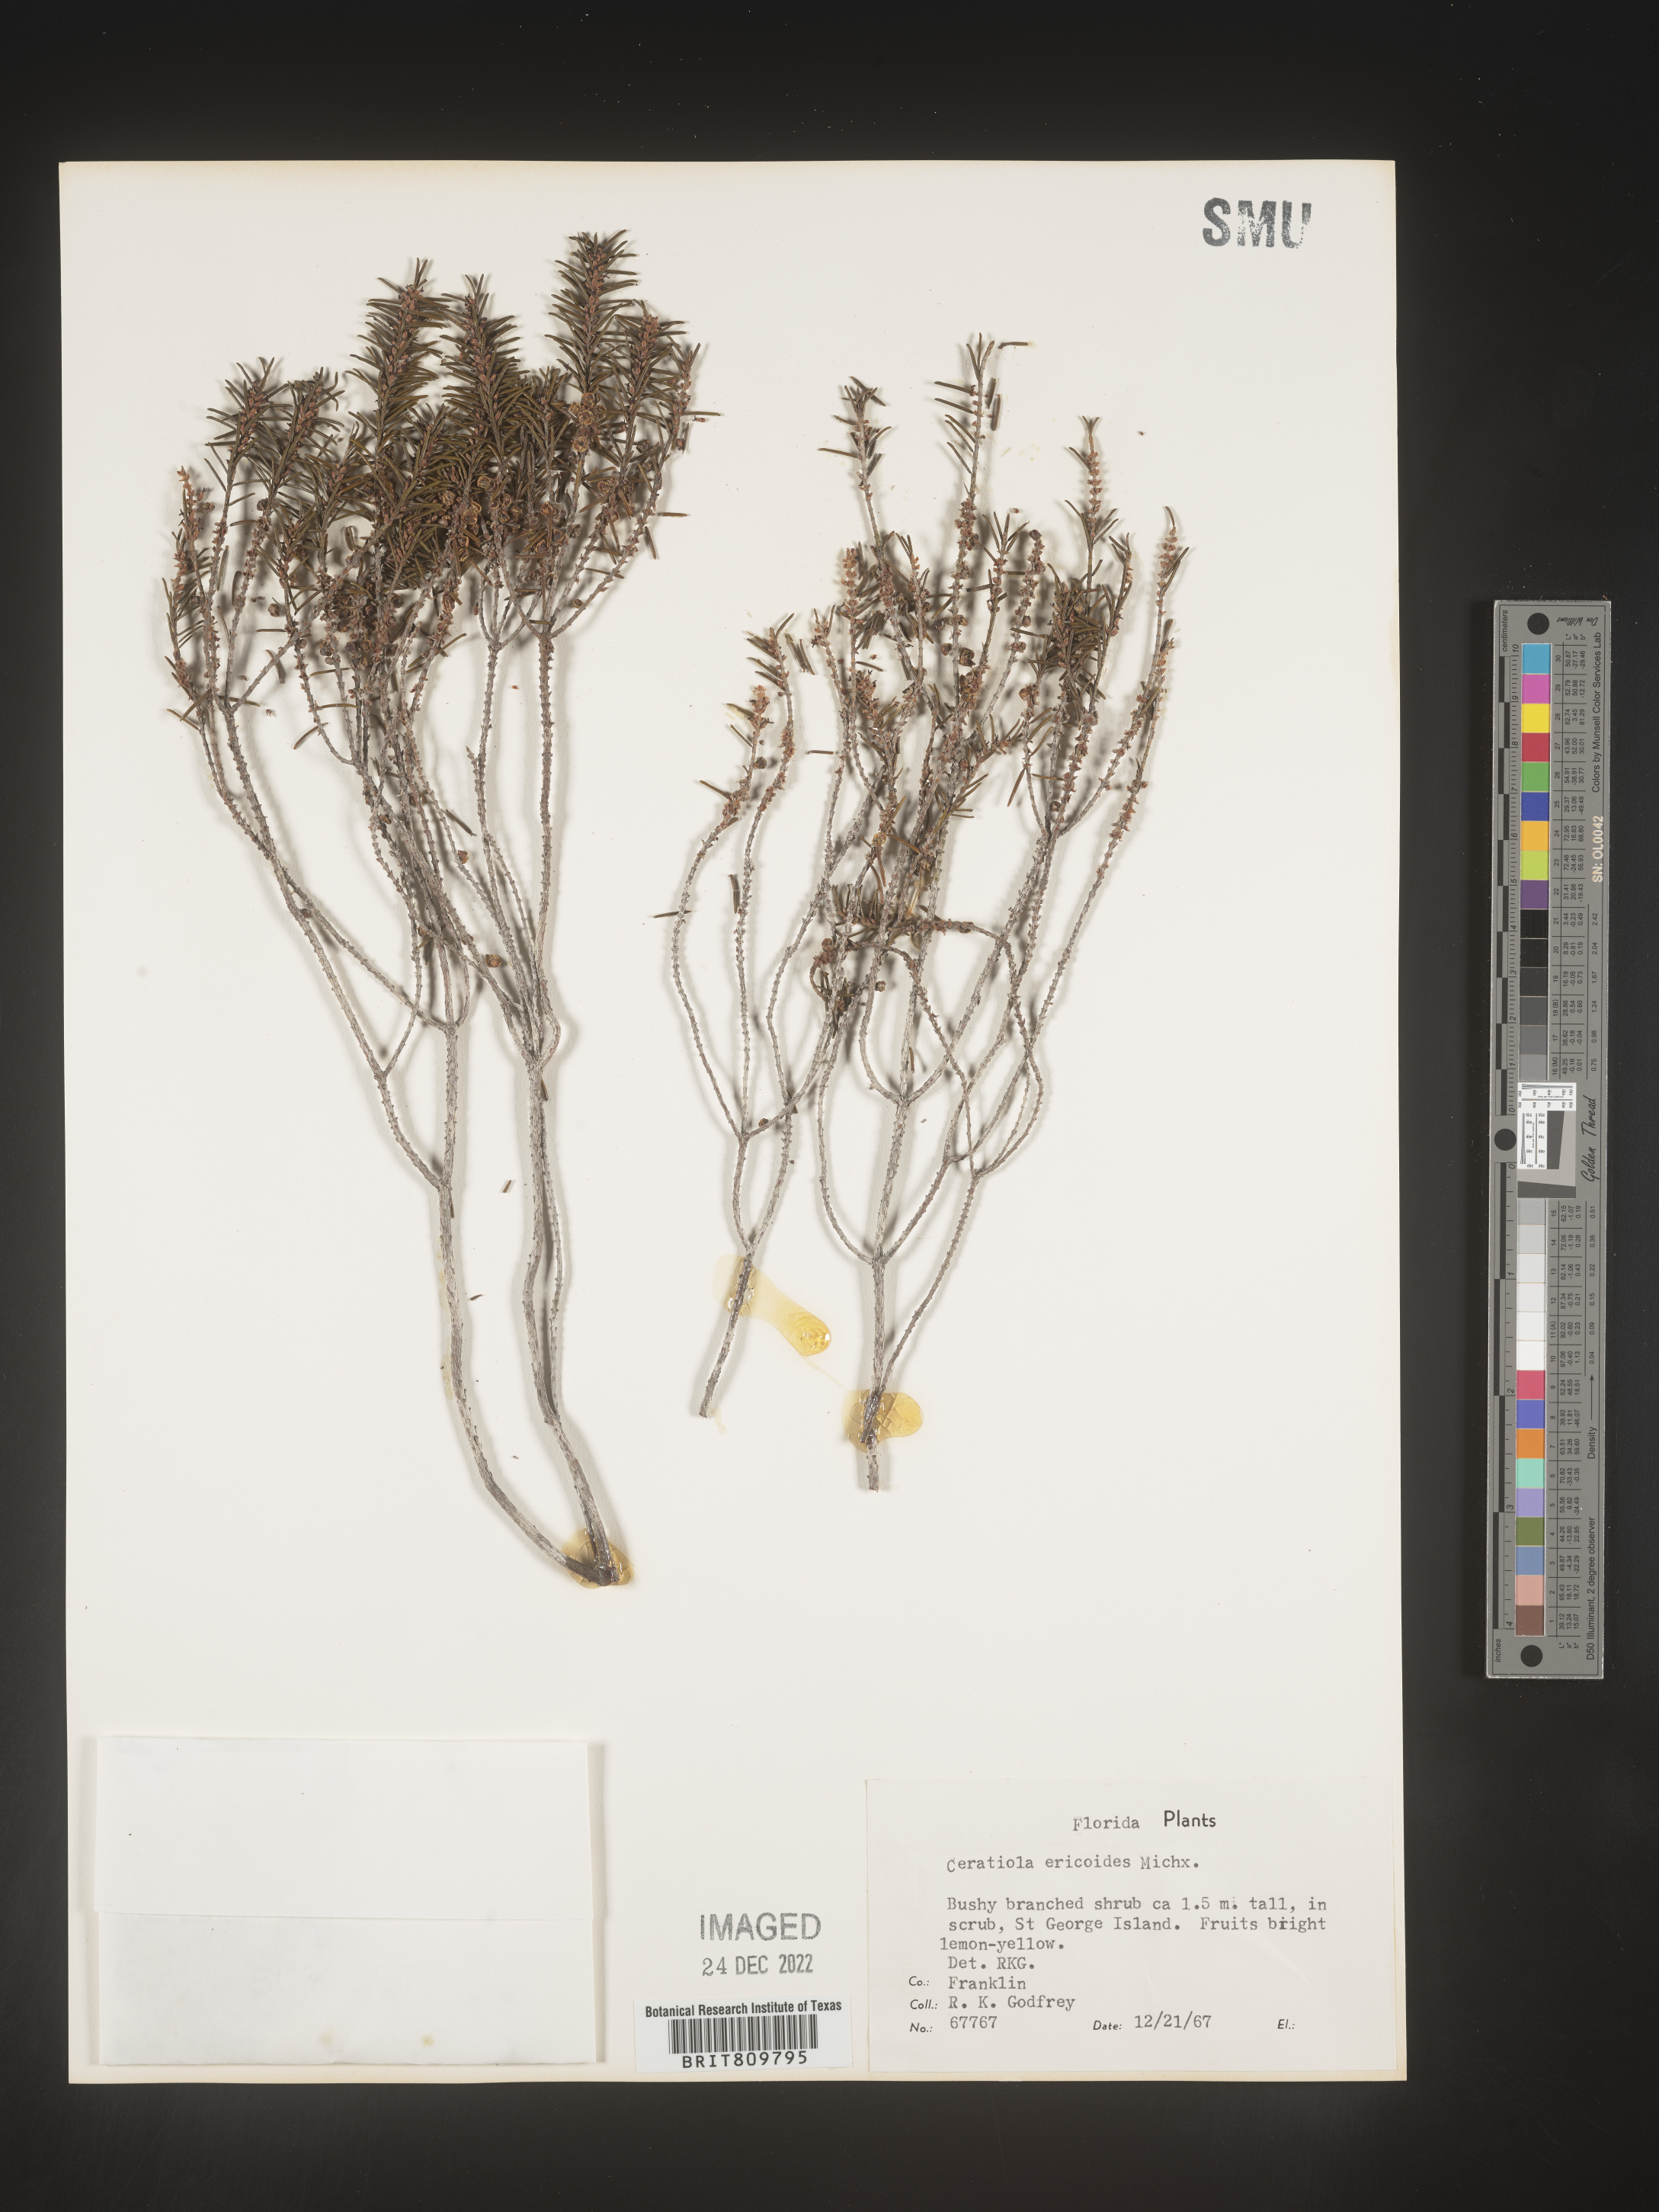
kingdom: Plantae
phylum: Tracheophyta
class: Magnoliopsida
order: Ericales
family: Ericaceae
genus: Ceratiola
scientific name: Ceratiola ericoides
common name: Sandhill-rosemary
